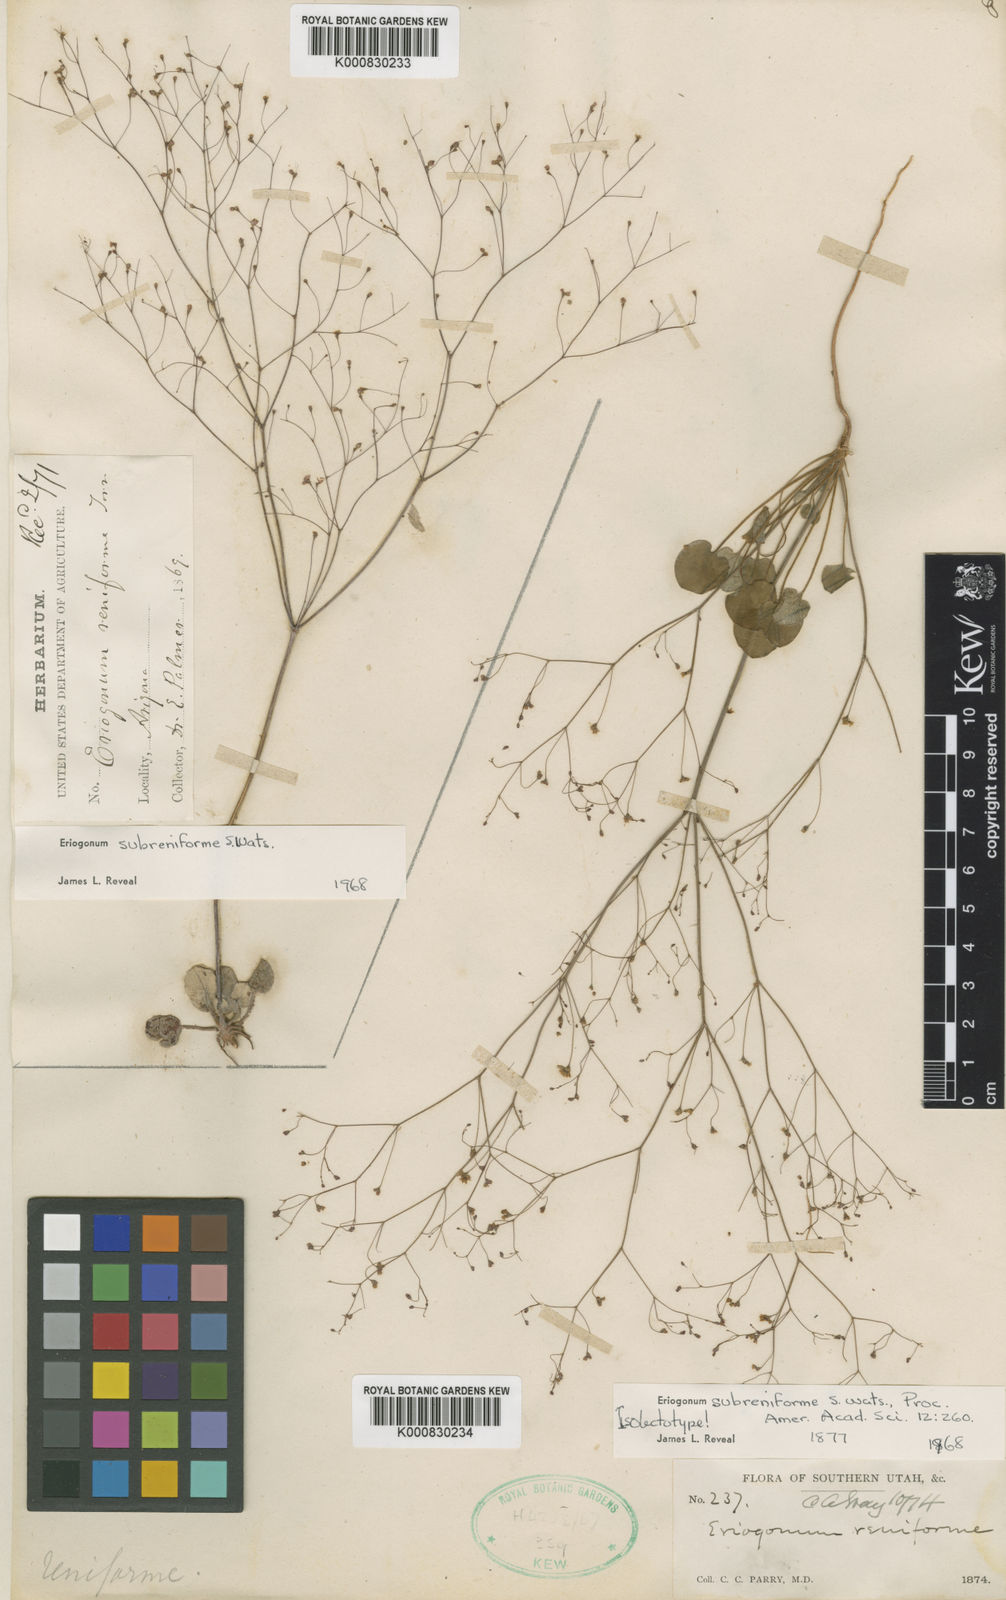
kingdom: Plantae
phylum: Tracheophyta
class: Magnoliopsida
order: Caryophyllales
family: Polygonaceae
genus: Eriogonum
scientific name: Eriogonum subreniforme
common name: Kidney-shape wild buckwheat
